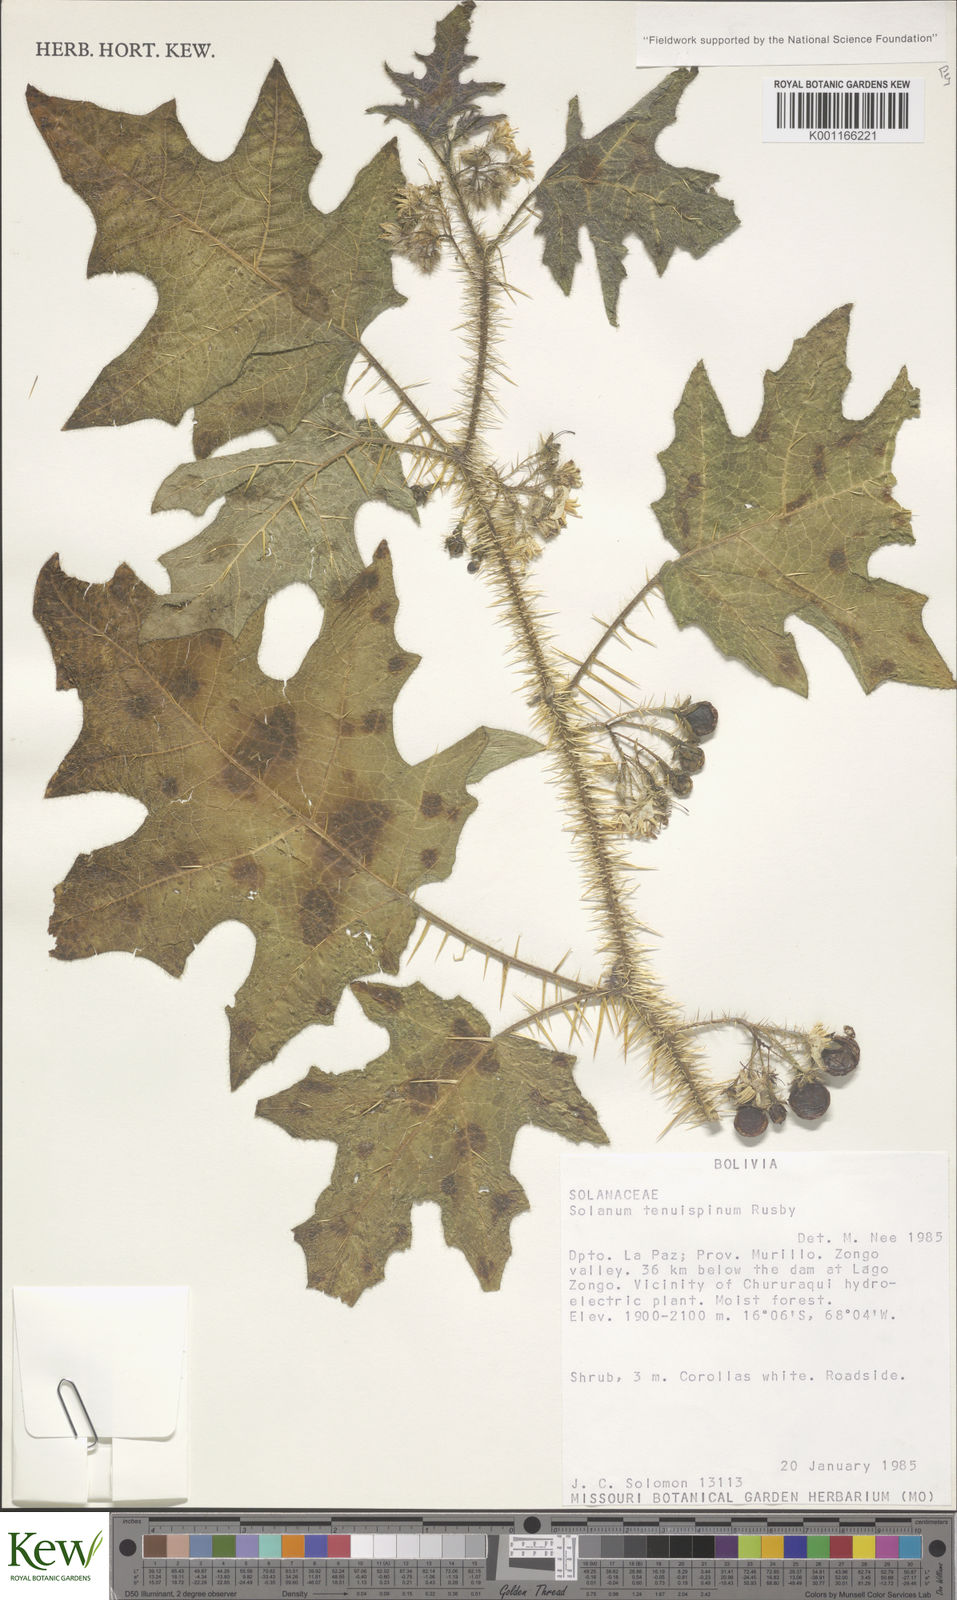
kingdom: Plantae
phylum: Tracheophyta
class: Magnoliopsida
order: Solanales
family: Solanaceae
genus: Solanum
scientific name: Solanum tenuispinum
